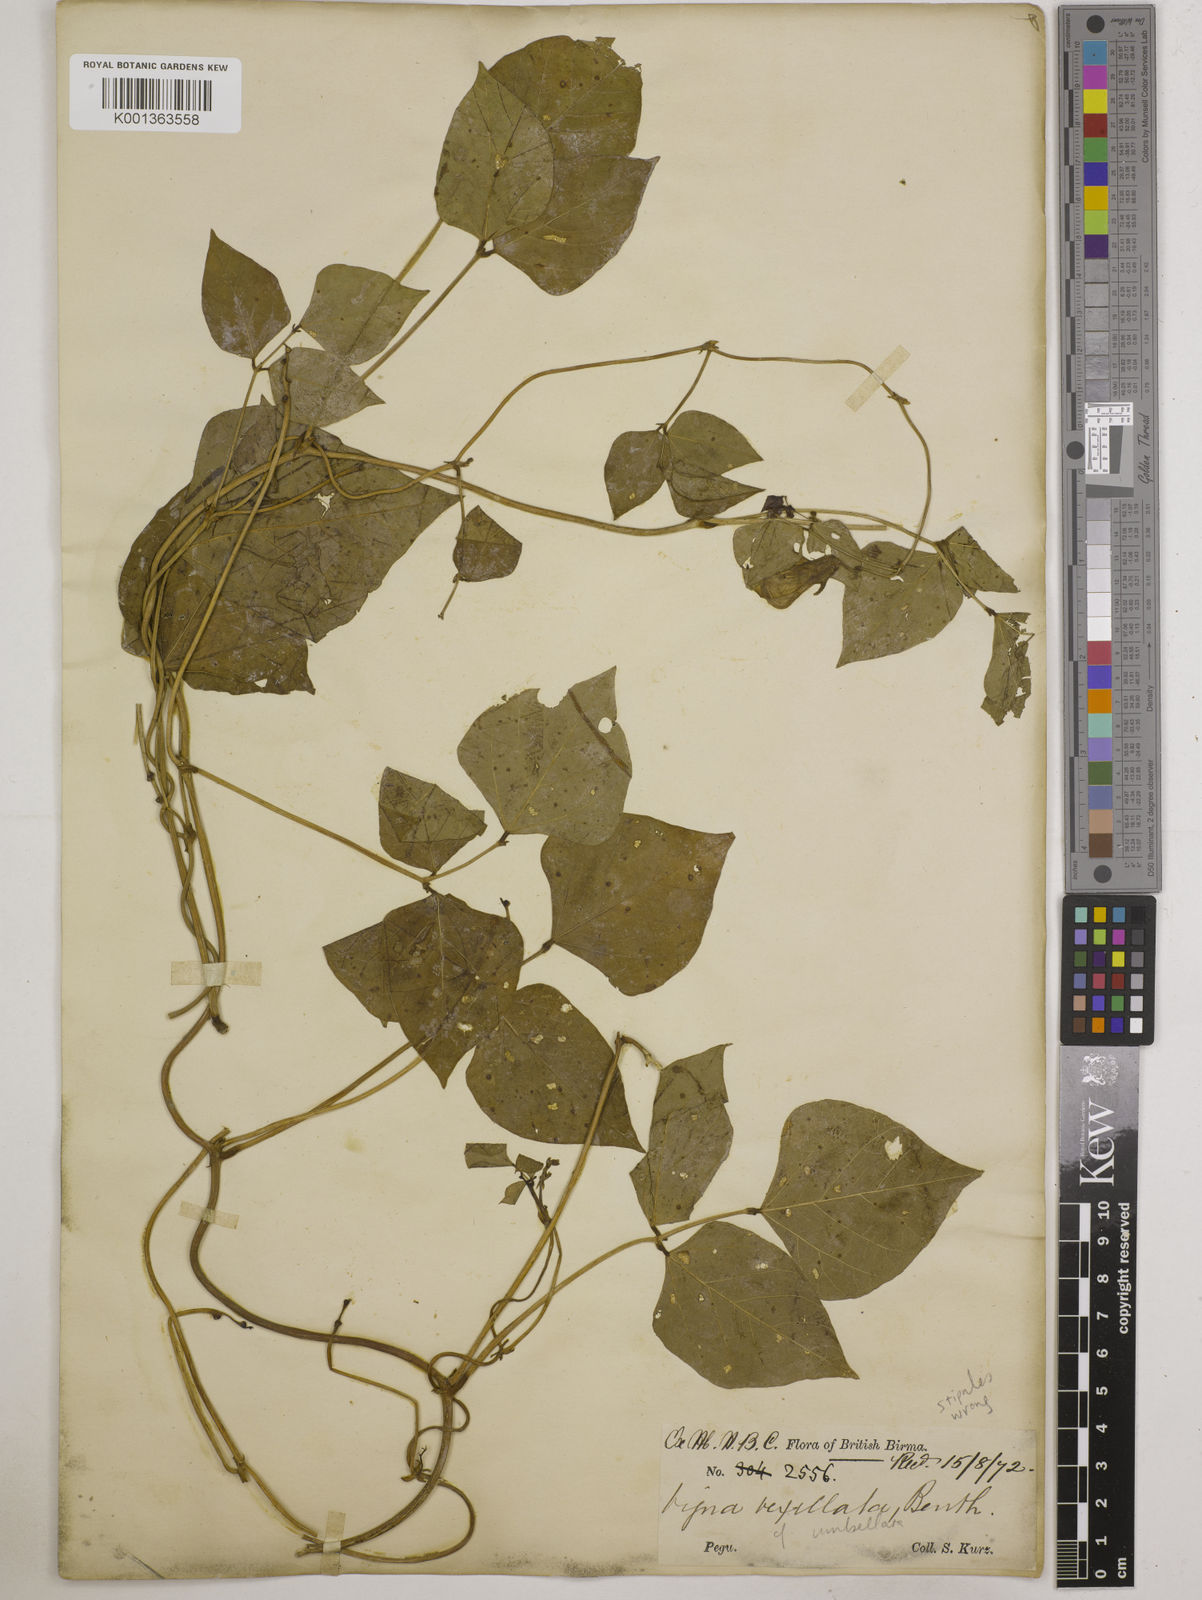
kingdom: Plantae
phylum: Tracheophyta
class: Magnoliopsida
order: Fabales
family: Fabaceae
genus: Vigna
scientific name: Vigna umbellata
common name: Oriental-bean
